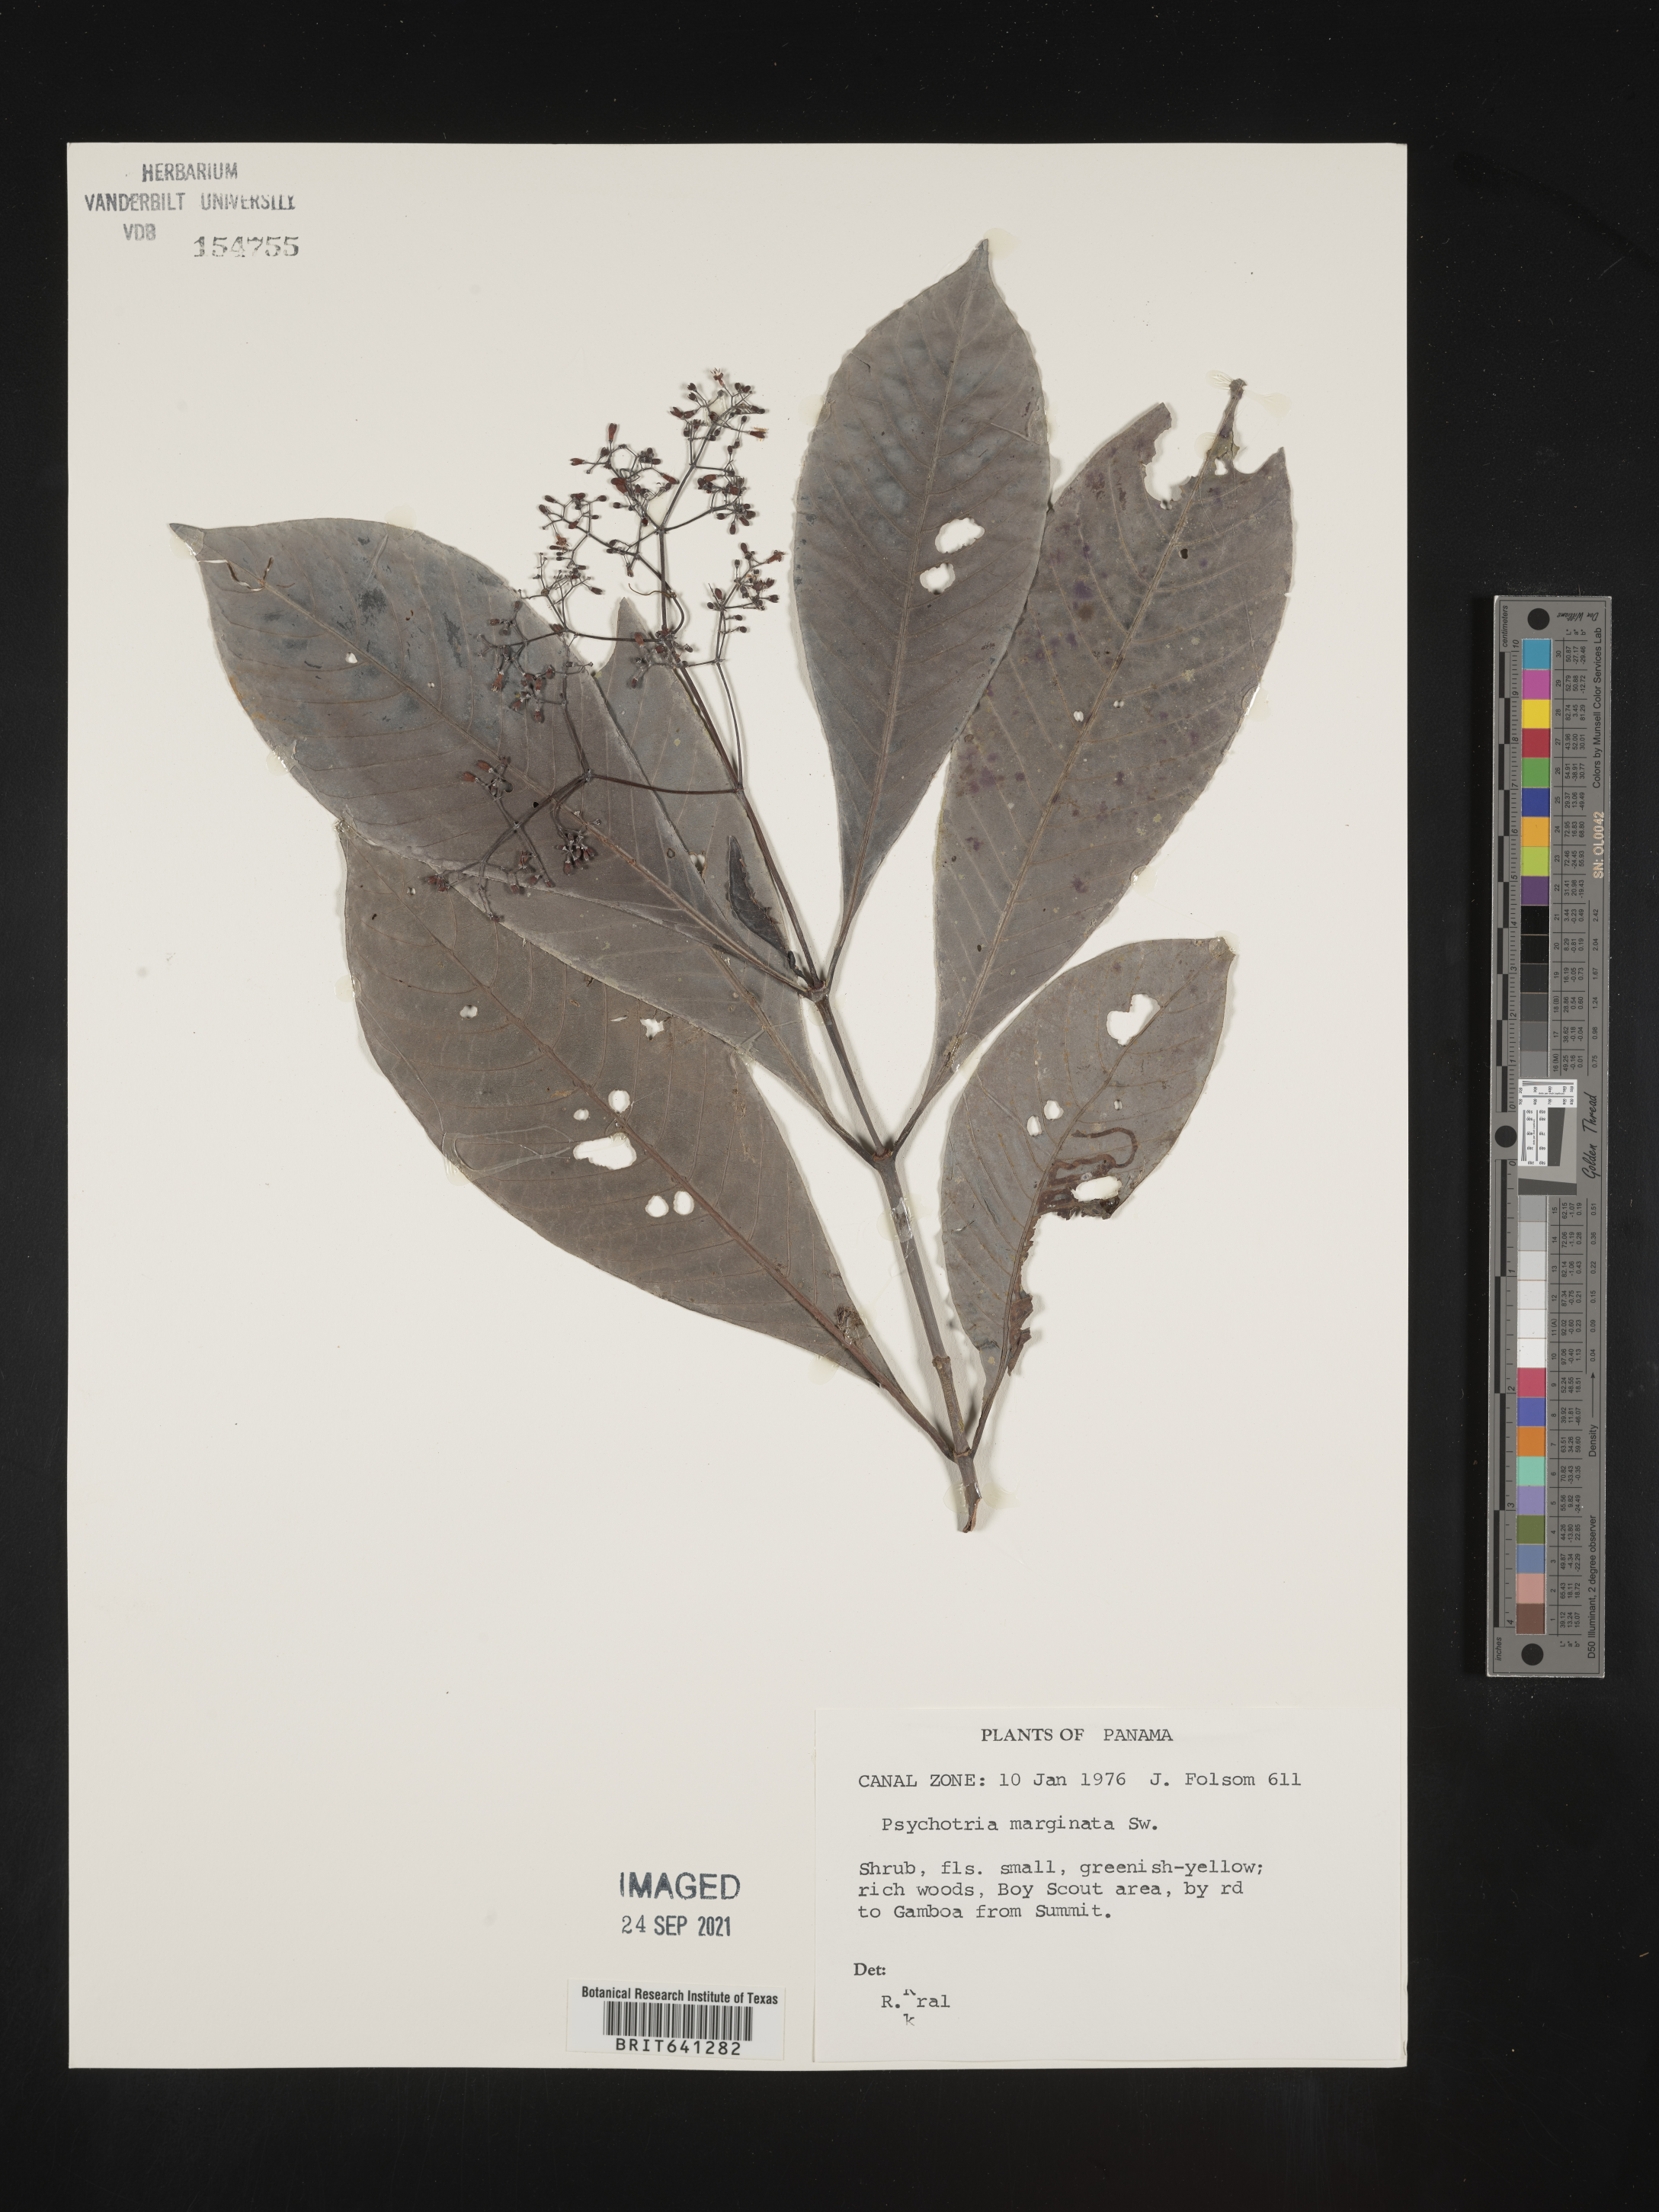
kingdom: Plantae
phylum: Tracheophyta
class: Magnoliopsida
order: Gentianales
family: Rubiaceae
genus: Psychotria
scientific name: Psychotria
